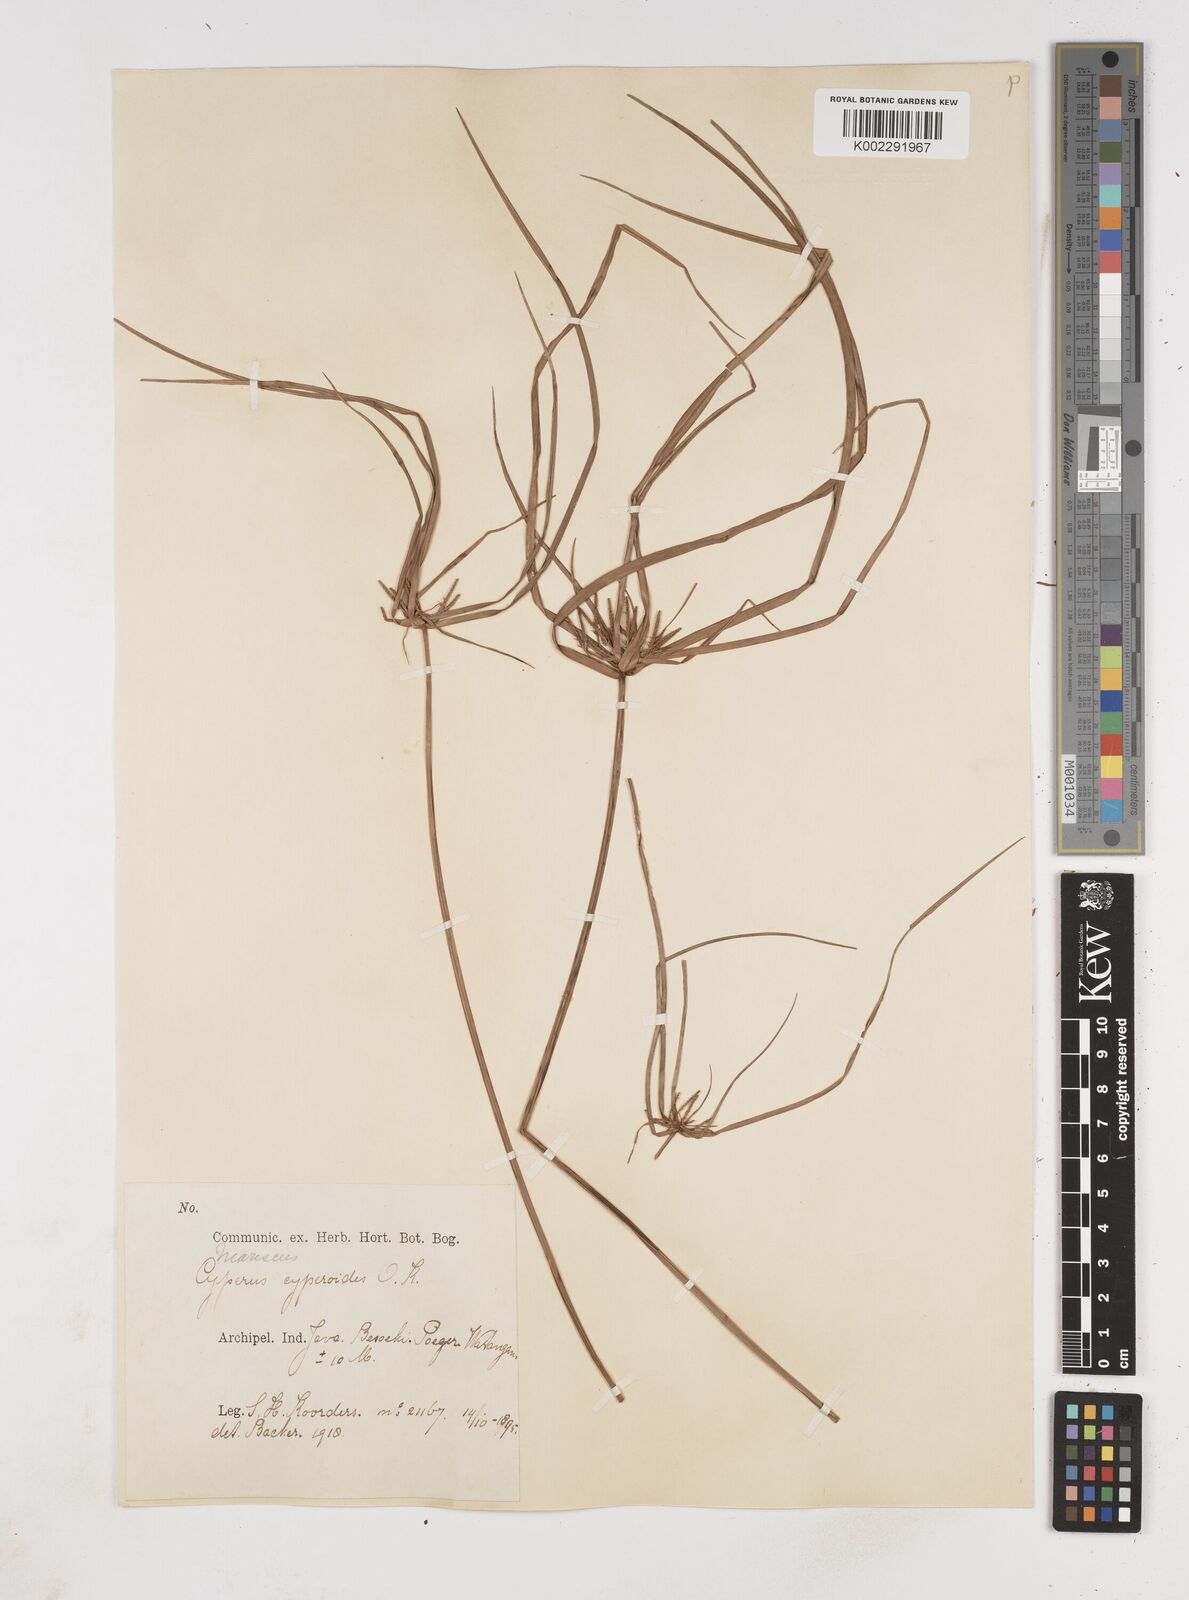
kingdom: Plantae
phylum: Tracheophyta
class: Liliopsida
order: Poales
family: Cyperaceae
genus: Cyperus
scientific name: Cyperus cyperoides
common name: Pacific island flat sedge
